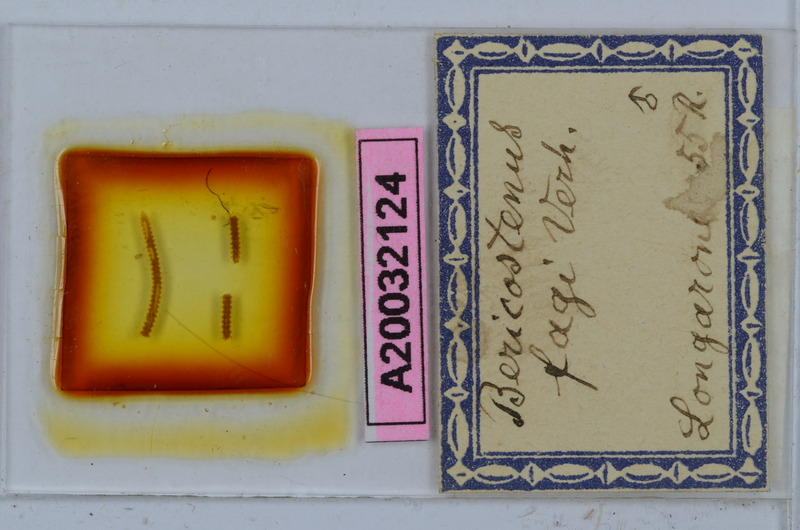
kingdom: Animalia
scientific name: Animalia
